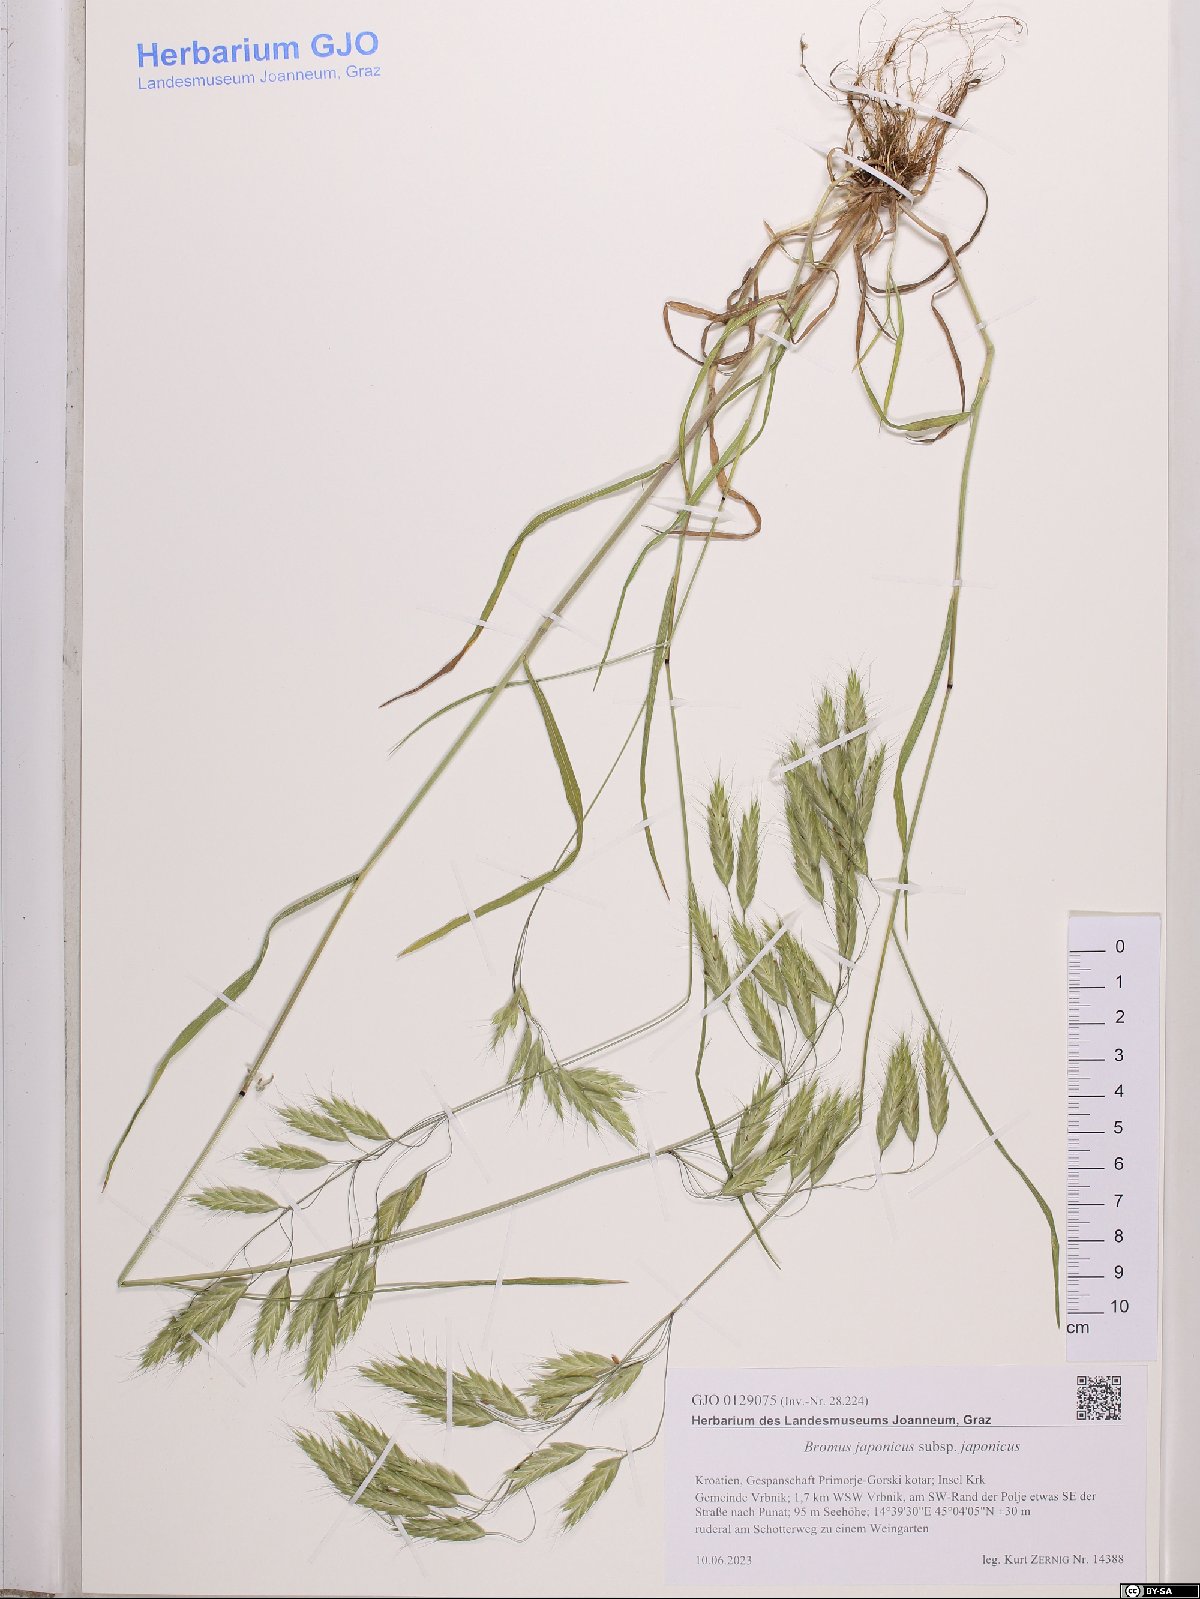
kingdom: Plantae
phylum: Tracheophyta
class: Liliopsida
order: Poales
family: Poaceae
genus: Bromus
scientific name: Bromus japonicus
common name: Japanese brome
